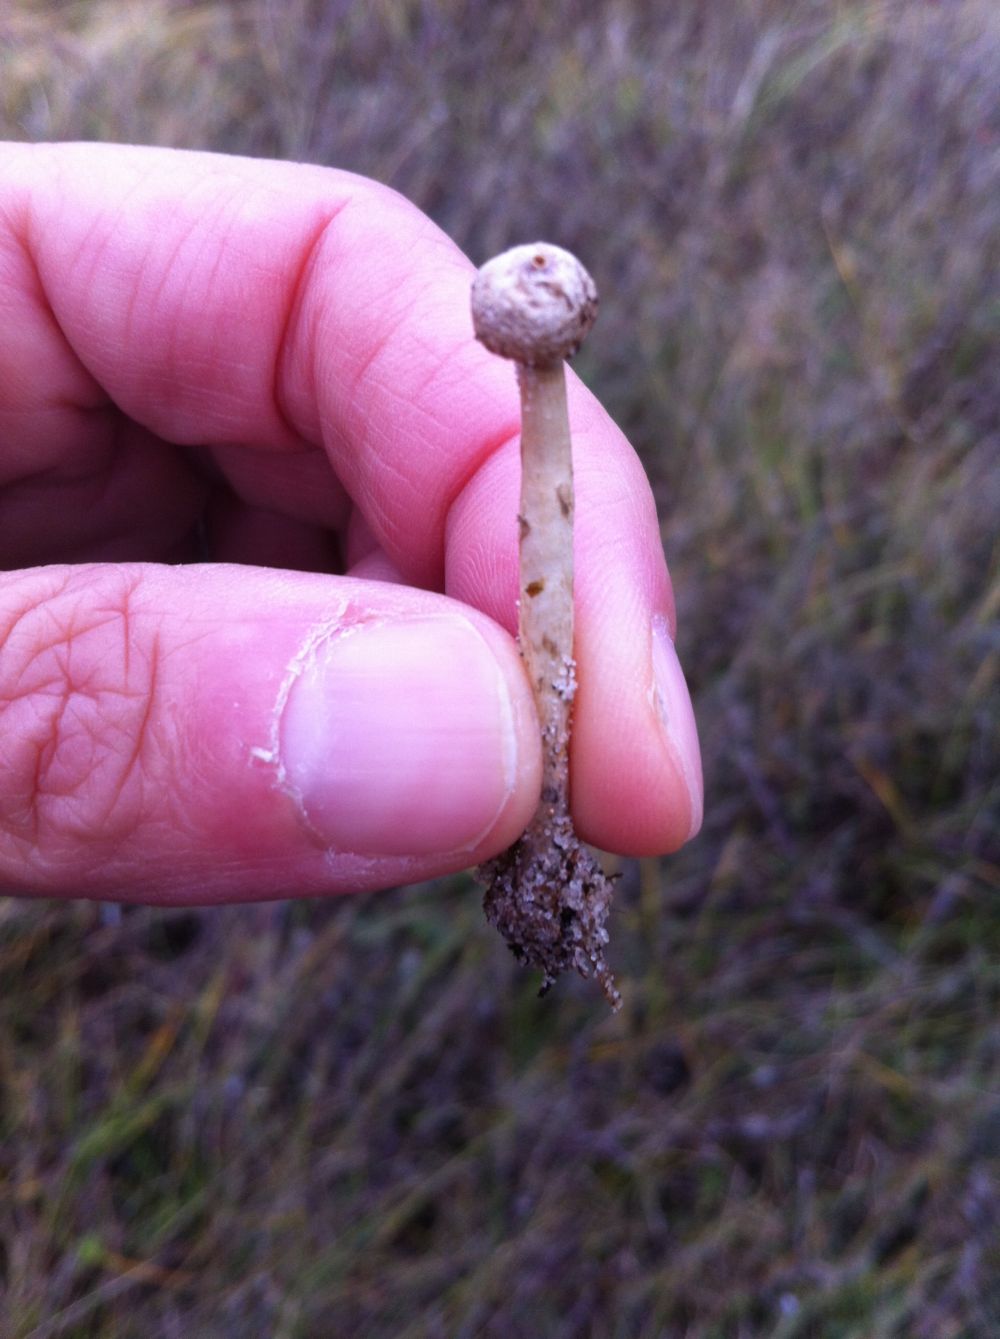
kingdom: Fungi
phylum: Basidiomycota
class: Agaricomycetes
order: Agaricales
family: Agaricaceae
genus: Tulostoma
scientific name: Tulostoma brumale
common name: vinter-stilkbovist
